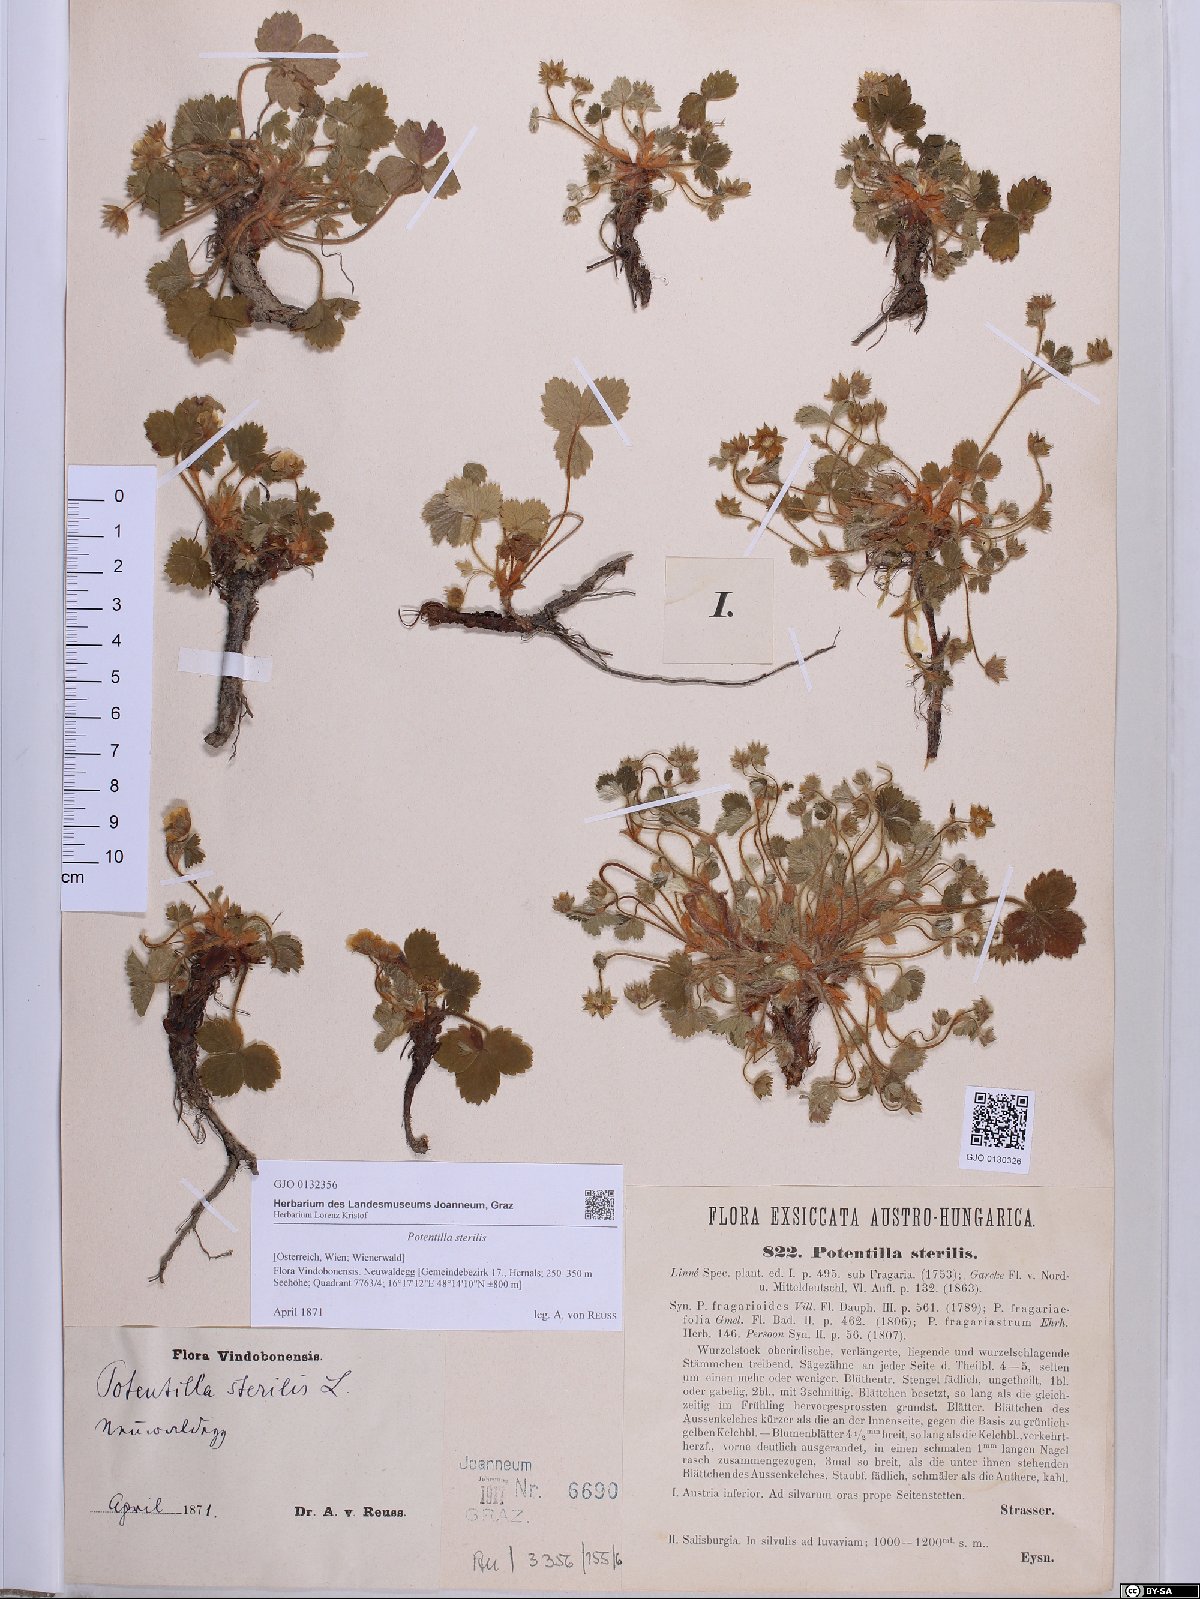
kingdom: Plantae
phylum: Tracheophyta
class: Magnoliopsida
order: Rosales
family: Rosaceae
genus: Potentilla
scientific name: Potentilla sterilis
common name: Barren strawberry
